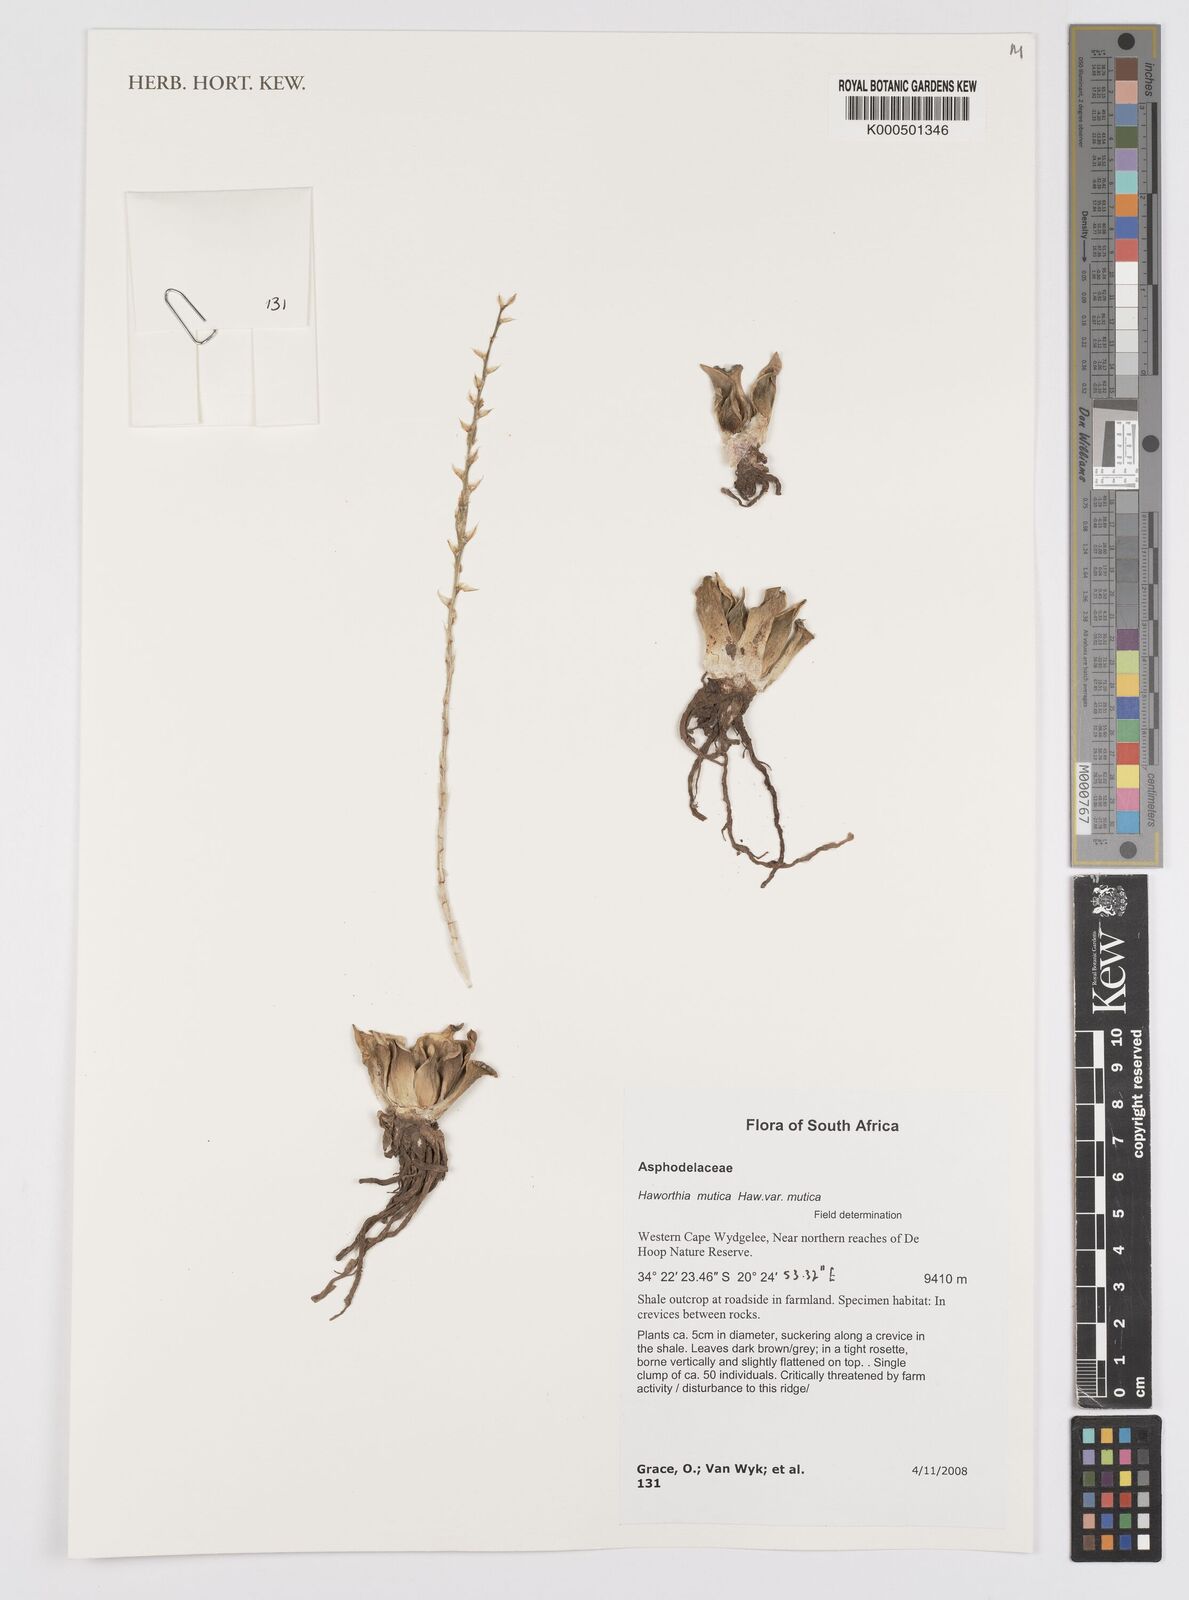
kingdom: Plantae
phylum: Tracheophyta
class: Liliopsida
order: Asparagales
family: Asphodelaceae
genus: Haworthia
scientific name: Haworthia mutica
